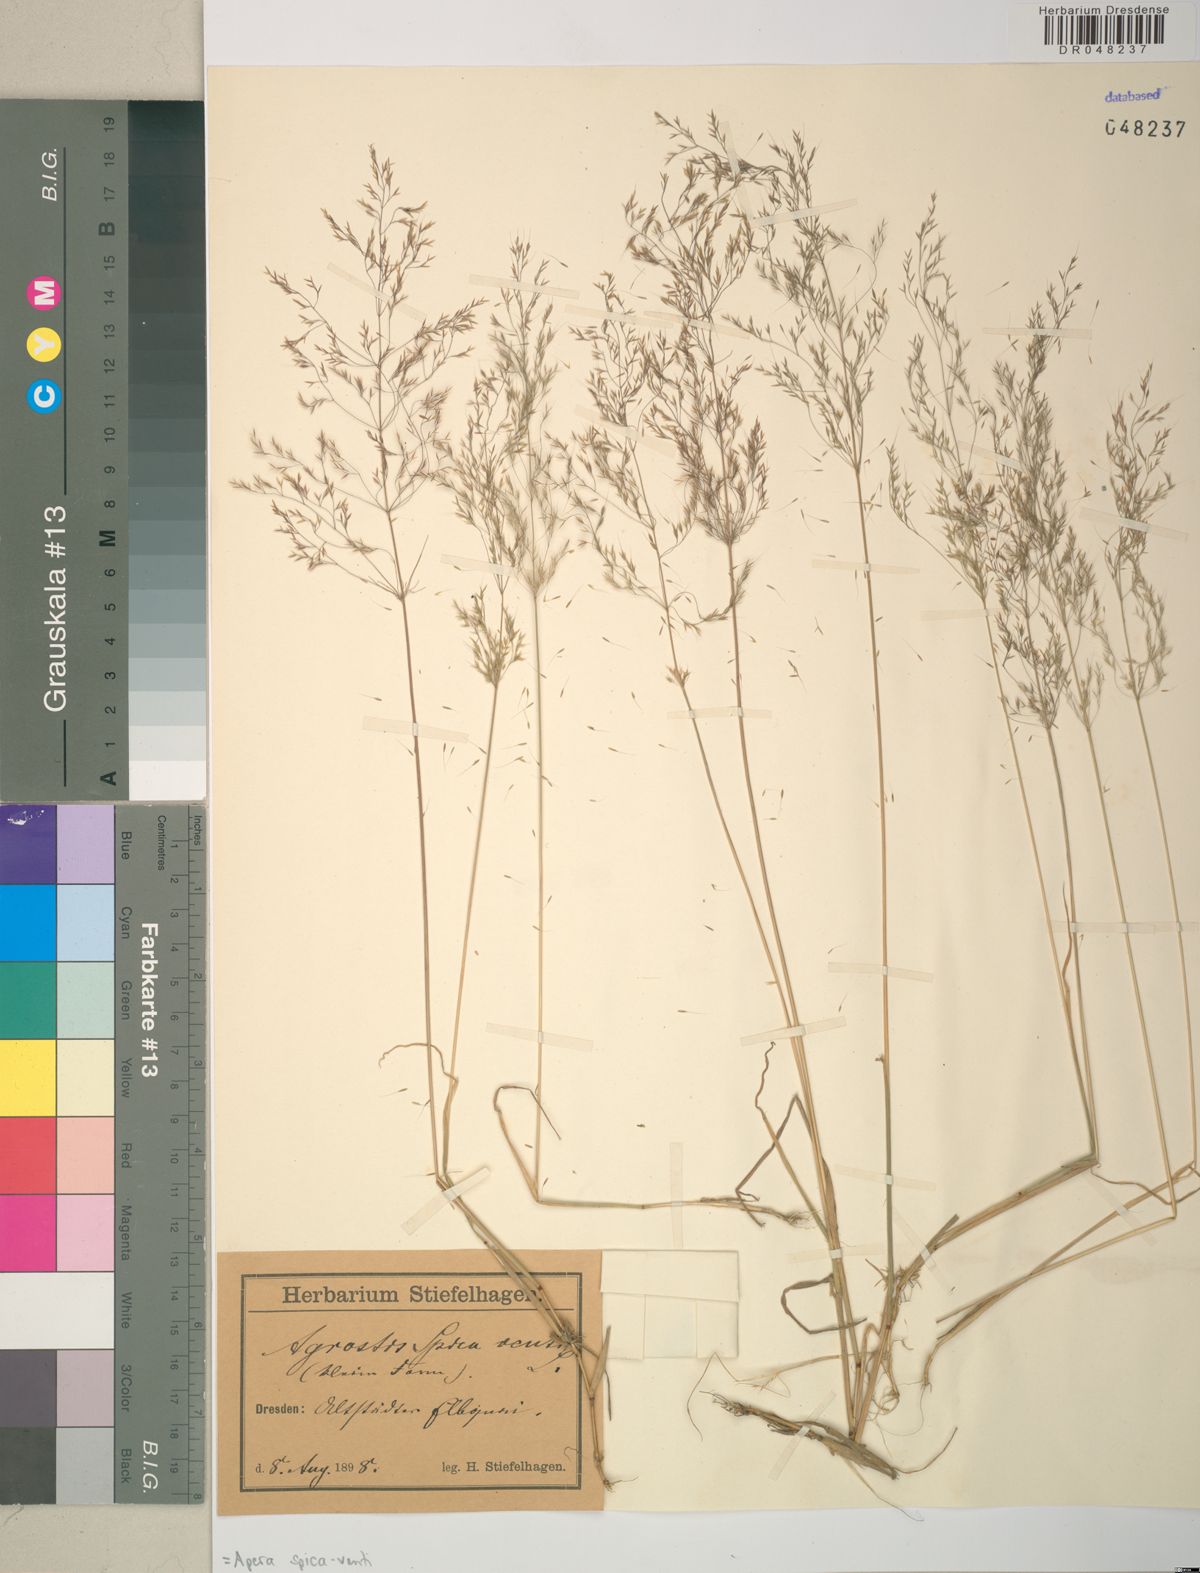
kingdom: Plantae
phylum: Tracheophyta
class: Liliopsida
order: Poales
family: Poaceae
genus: Apera
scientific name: Apera spica-venti
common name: Loose silky-bent
